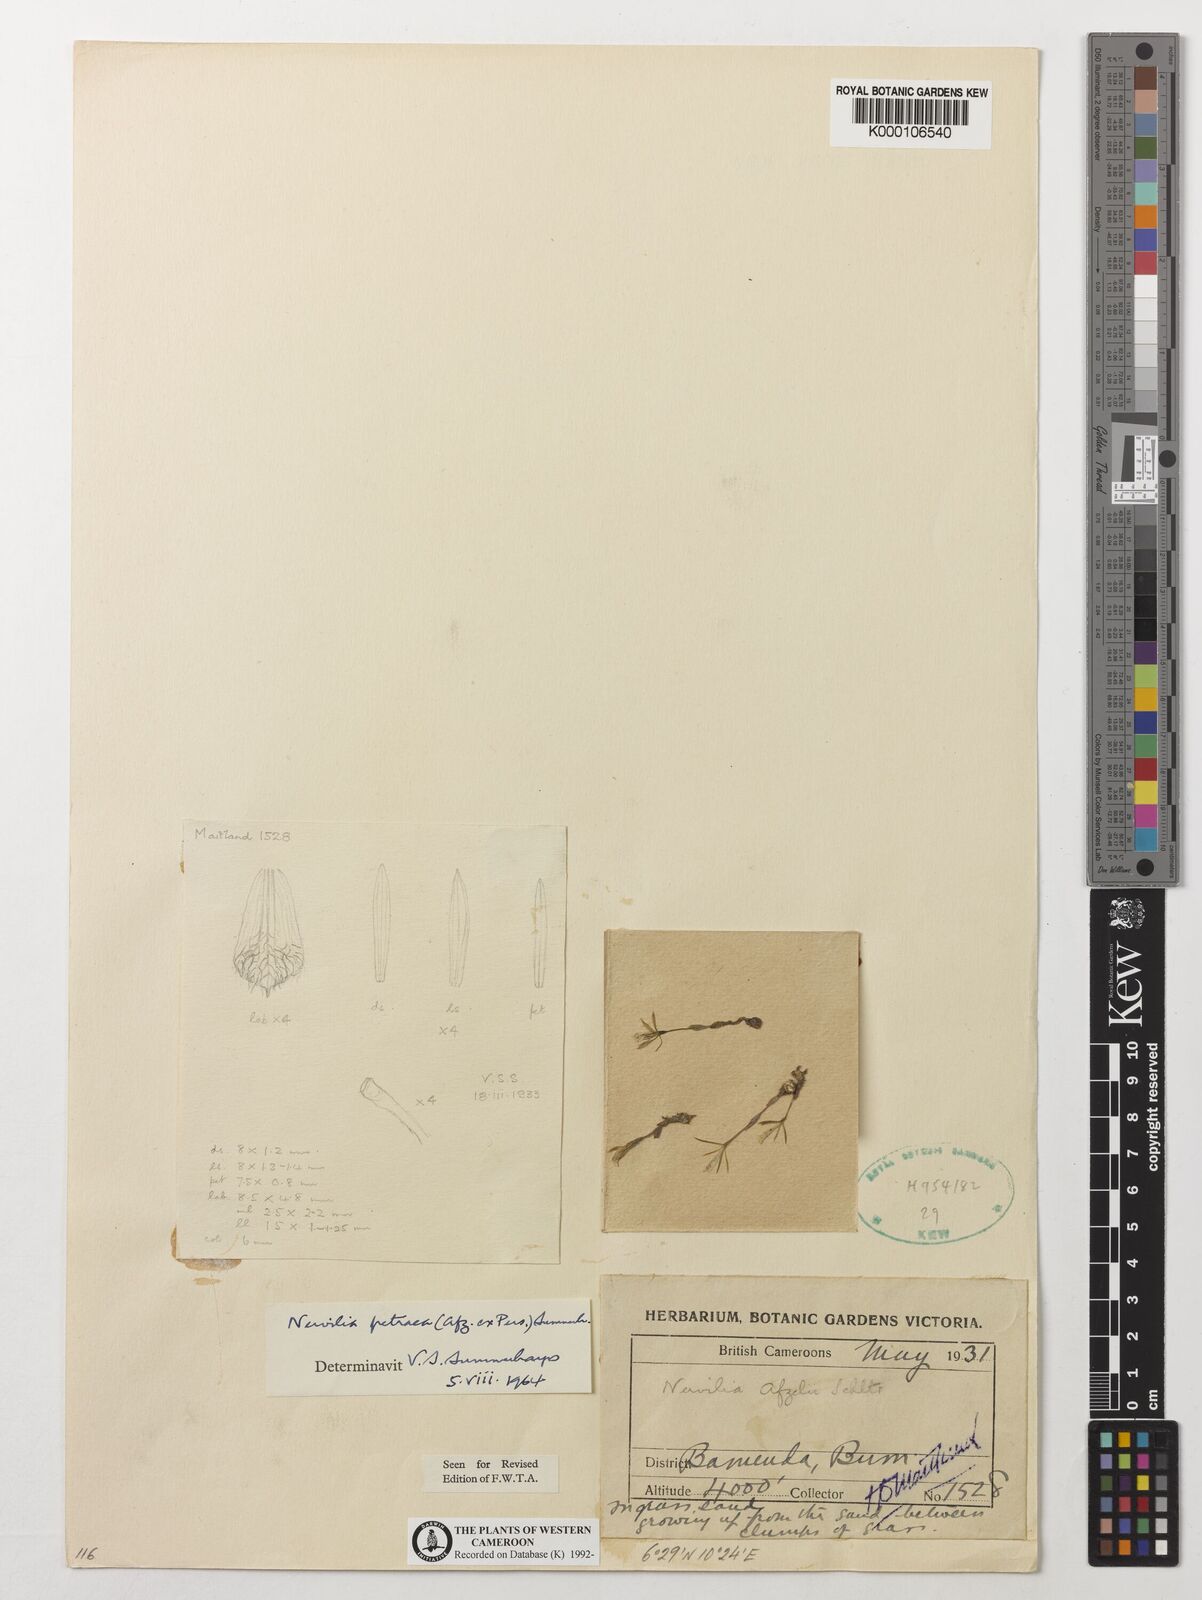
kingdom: Plantae
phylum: Tracheophyta
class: Liliopsida
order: Asparagales
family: Orchidaceae
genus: Nervilia
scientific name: Nervilia petraea
